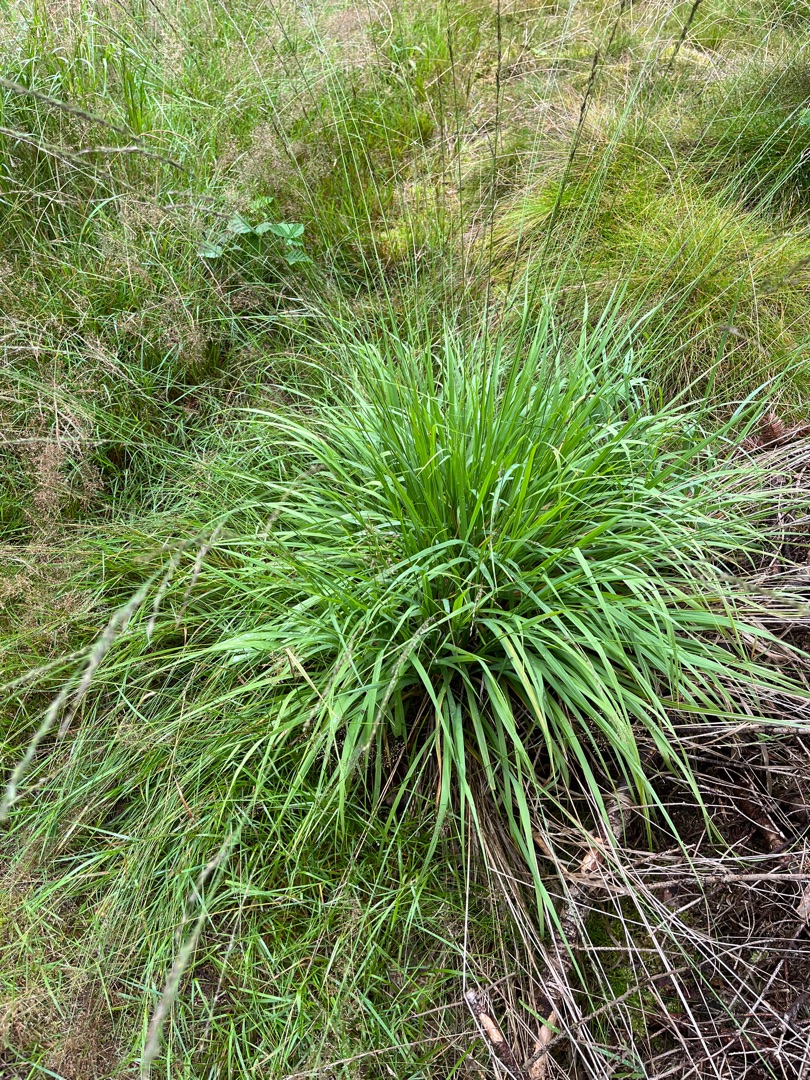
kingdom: Plantae
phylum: Tracheophyta
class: Liliopsida
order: Poales
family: Poaceae
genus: Molinia
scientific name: Molinia caerulea
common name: Blåtop
